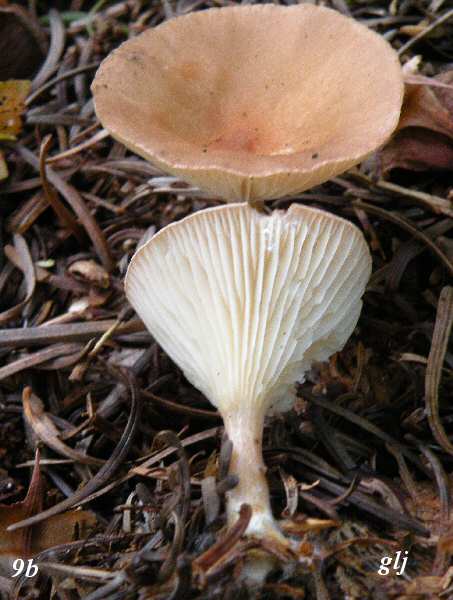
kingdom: Fungi
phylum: Basidiomycota
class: Agaricomycetes
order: Agaricales
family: Tricholomataceae
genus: Infundibulicybe
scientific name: Infundibulicybe gibba
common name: almindelig tragthat
